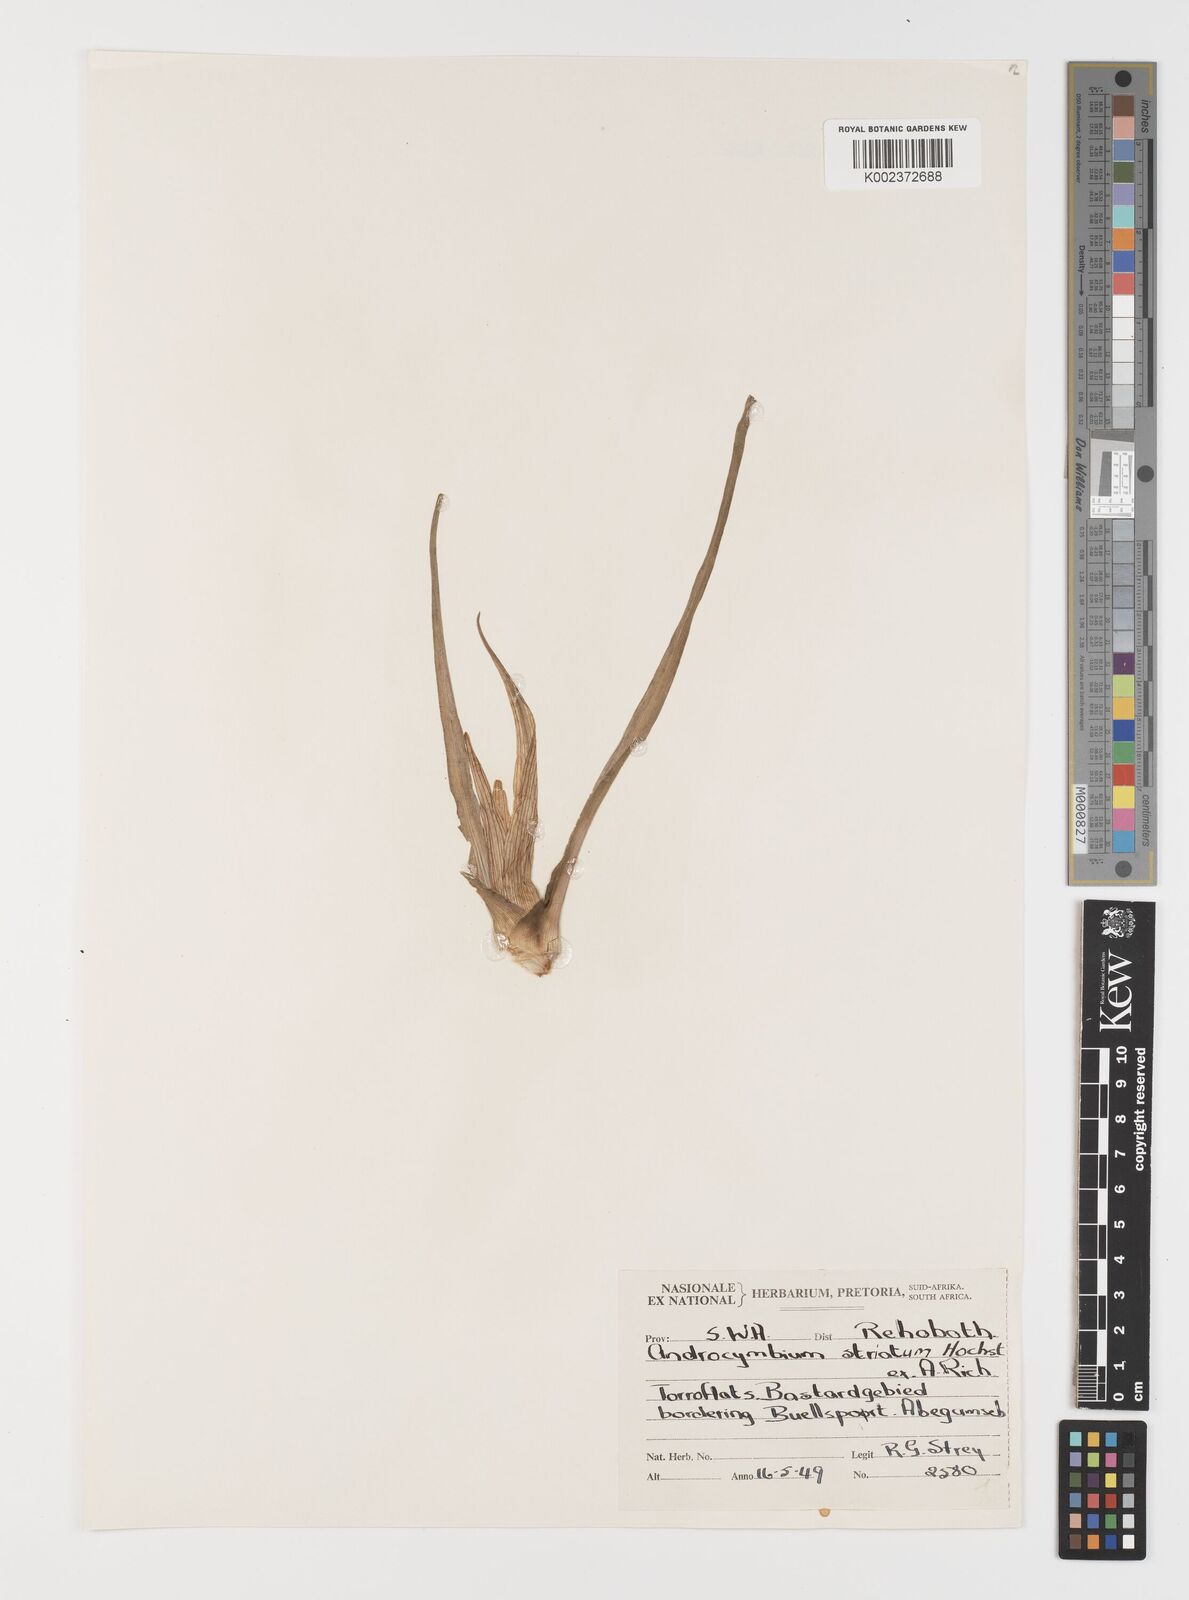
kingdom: Plantae
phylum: Tracheophyta
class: Liliopsida
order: Liliales
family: Colchicaceae
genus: Colchicum
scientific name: Colchicum striatum
